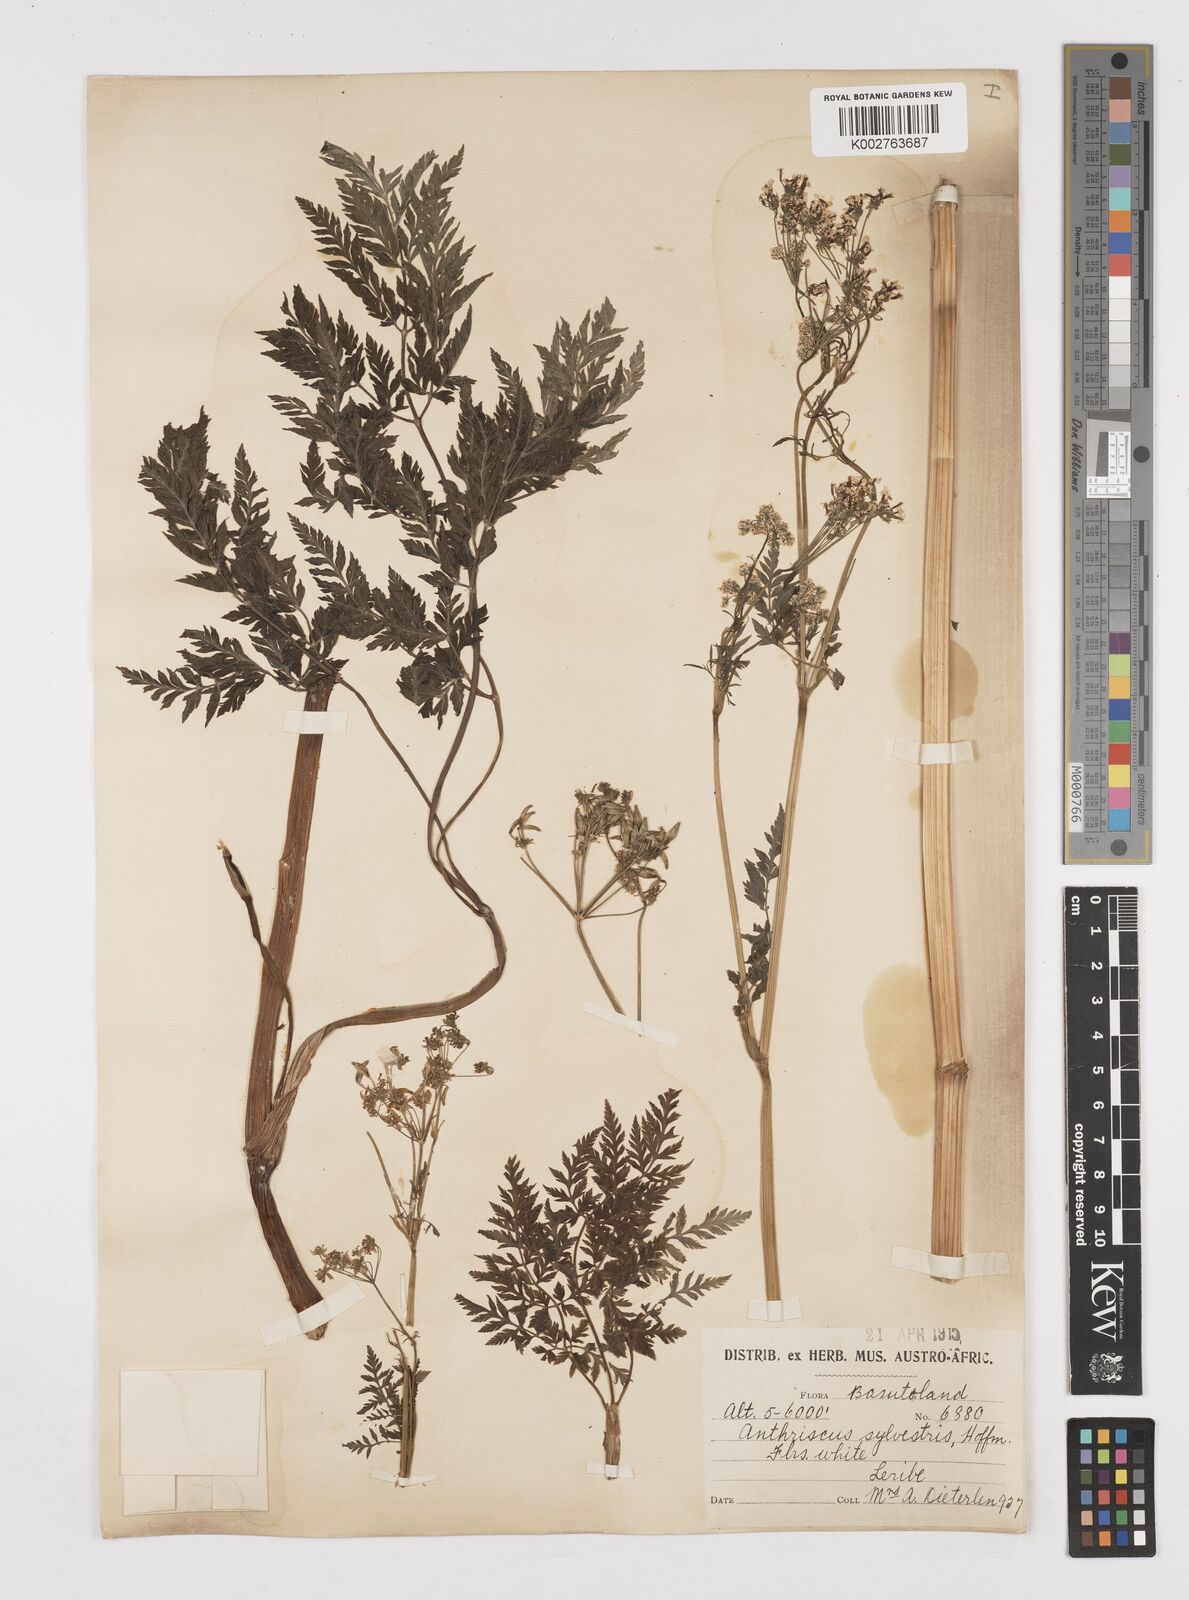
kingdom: Plantae
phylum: Tracheophyta
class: Magnoliopsida
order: Apiales
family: Apiaceae
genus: Anthriscus
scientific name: Anthriscus sylvestris
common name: Cow parsley
